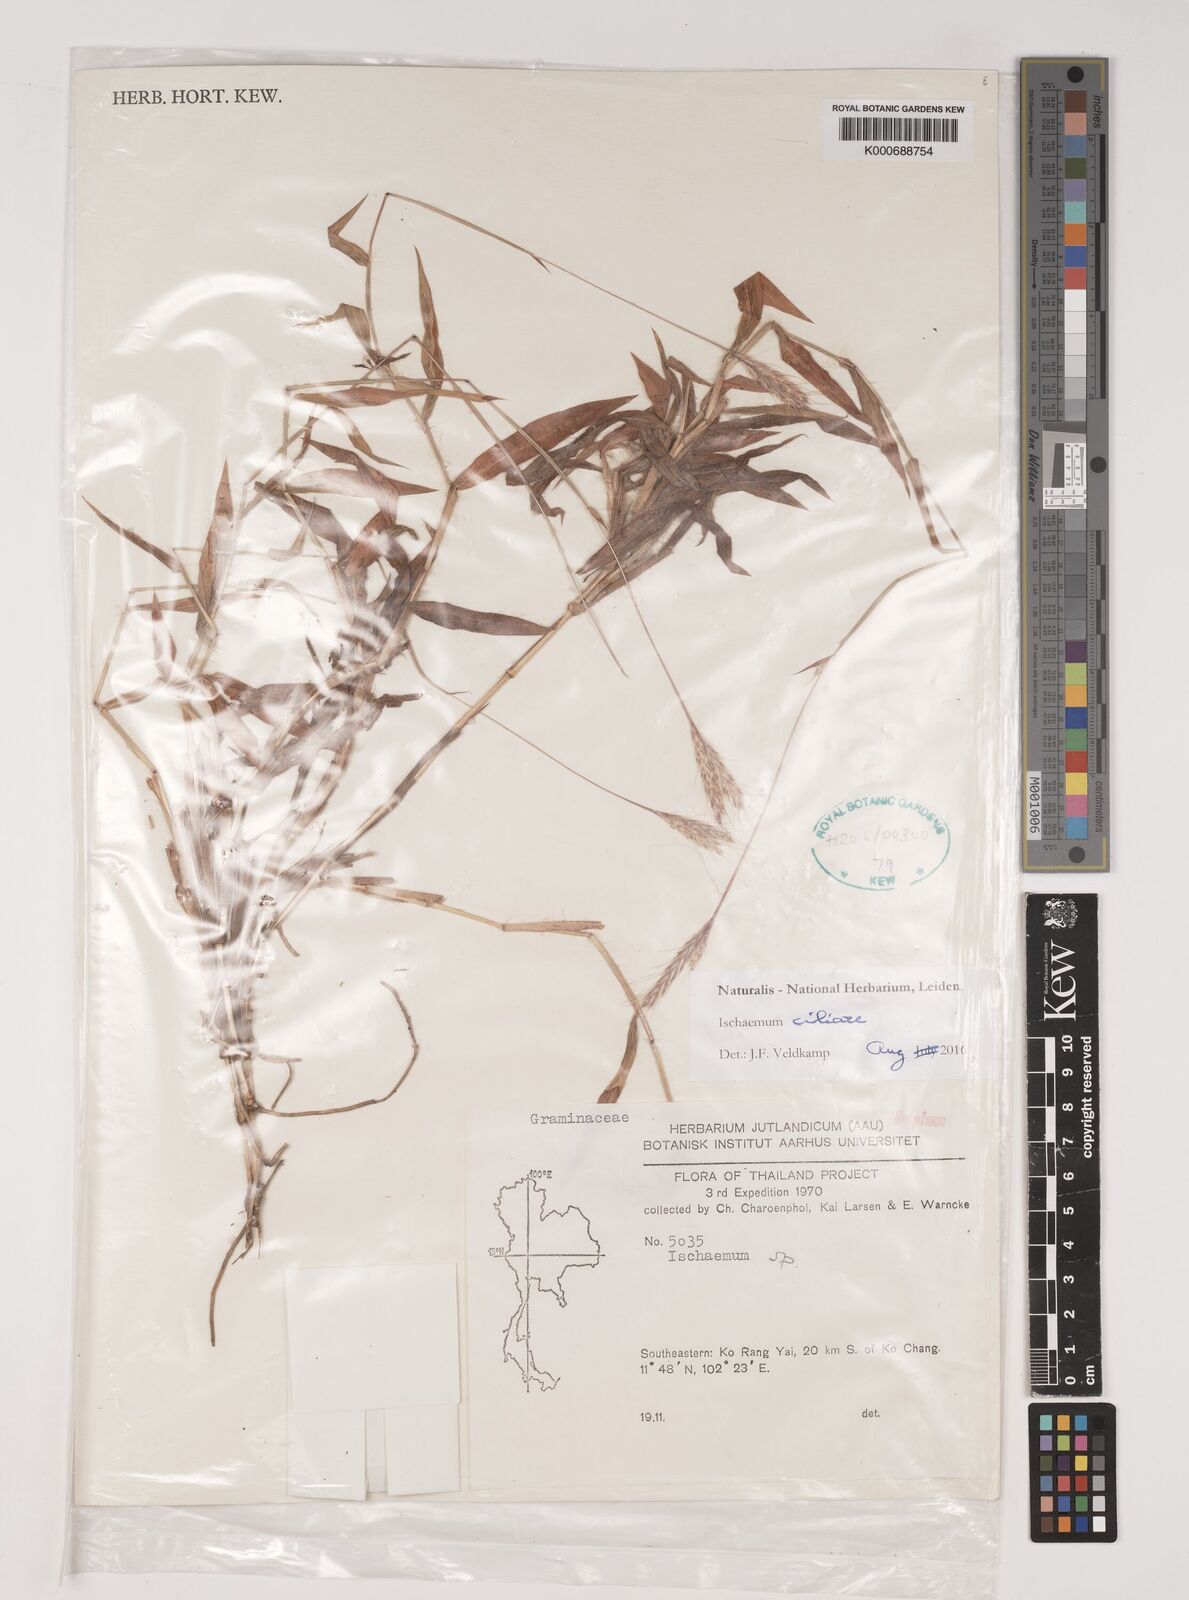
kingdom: Plantae
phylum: Tracheophyta
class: Liliopsida
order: Poales
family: Poaceae
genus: Ischaemum
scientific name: Ischaemum ciliare
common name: Grass
